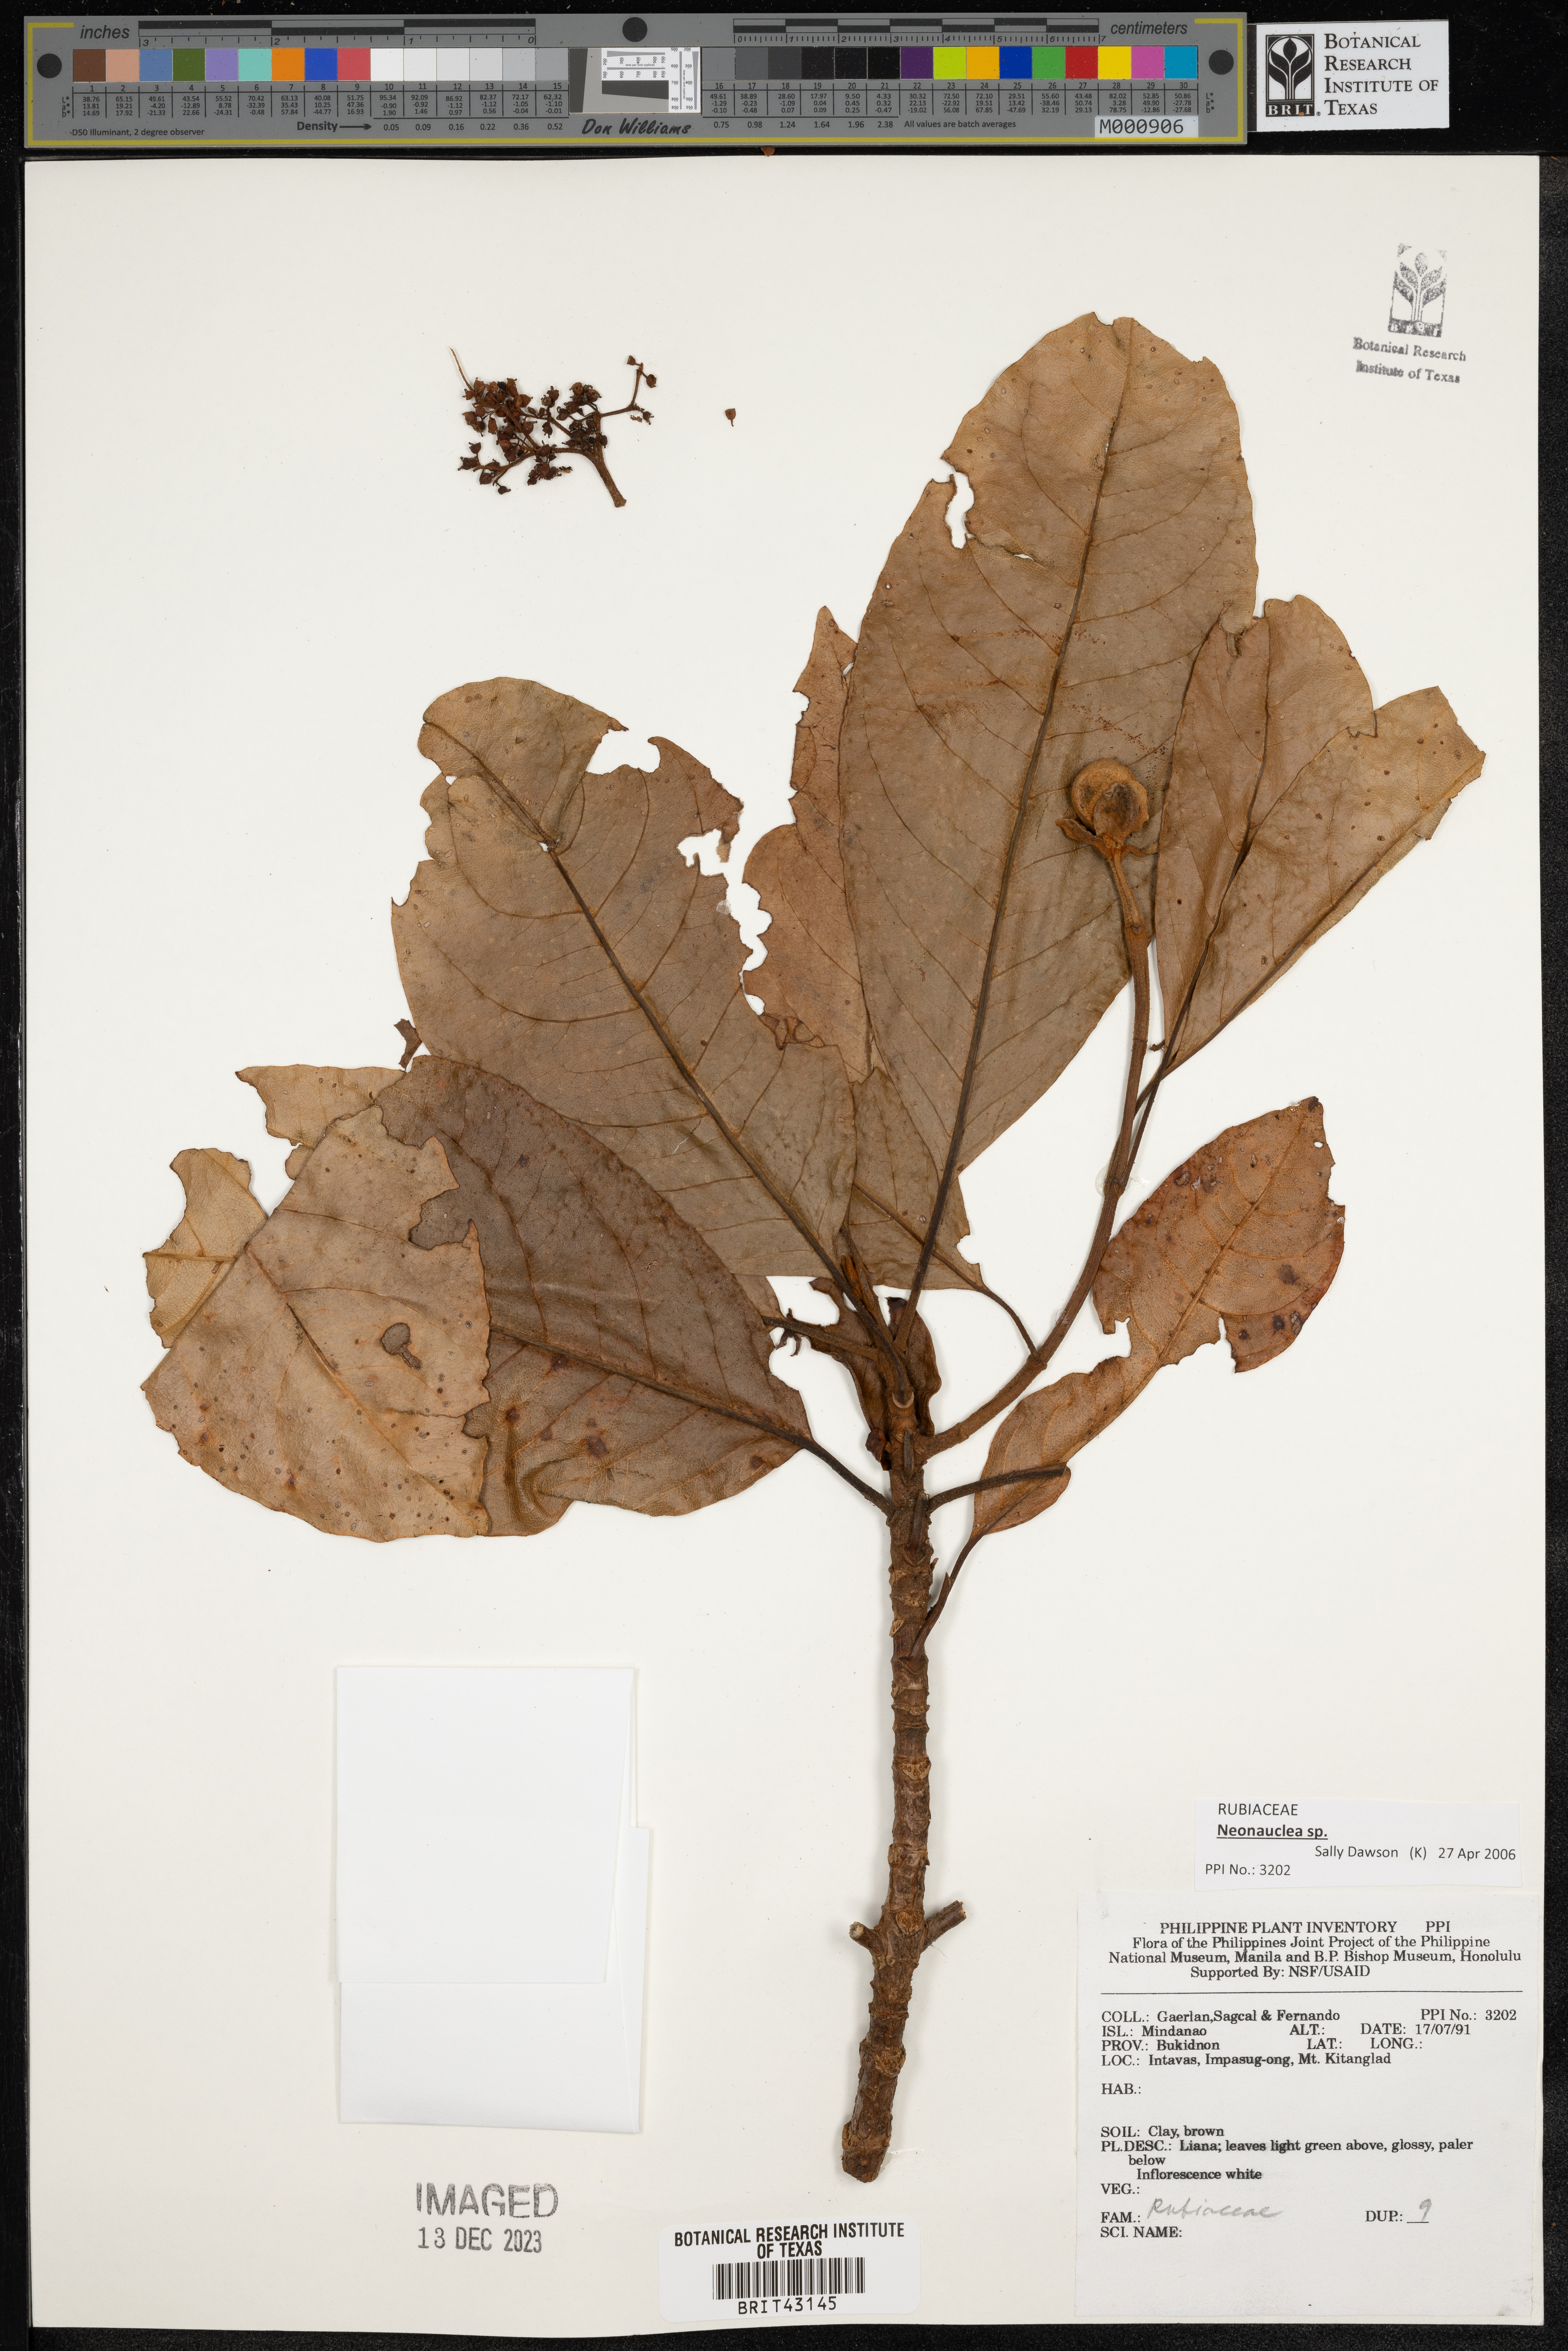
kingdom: Plantae
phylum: Tracheophyta
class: Magnoliopsida
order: Gentianales
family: Rubiaceae
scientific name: Rubiaceae
